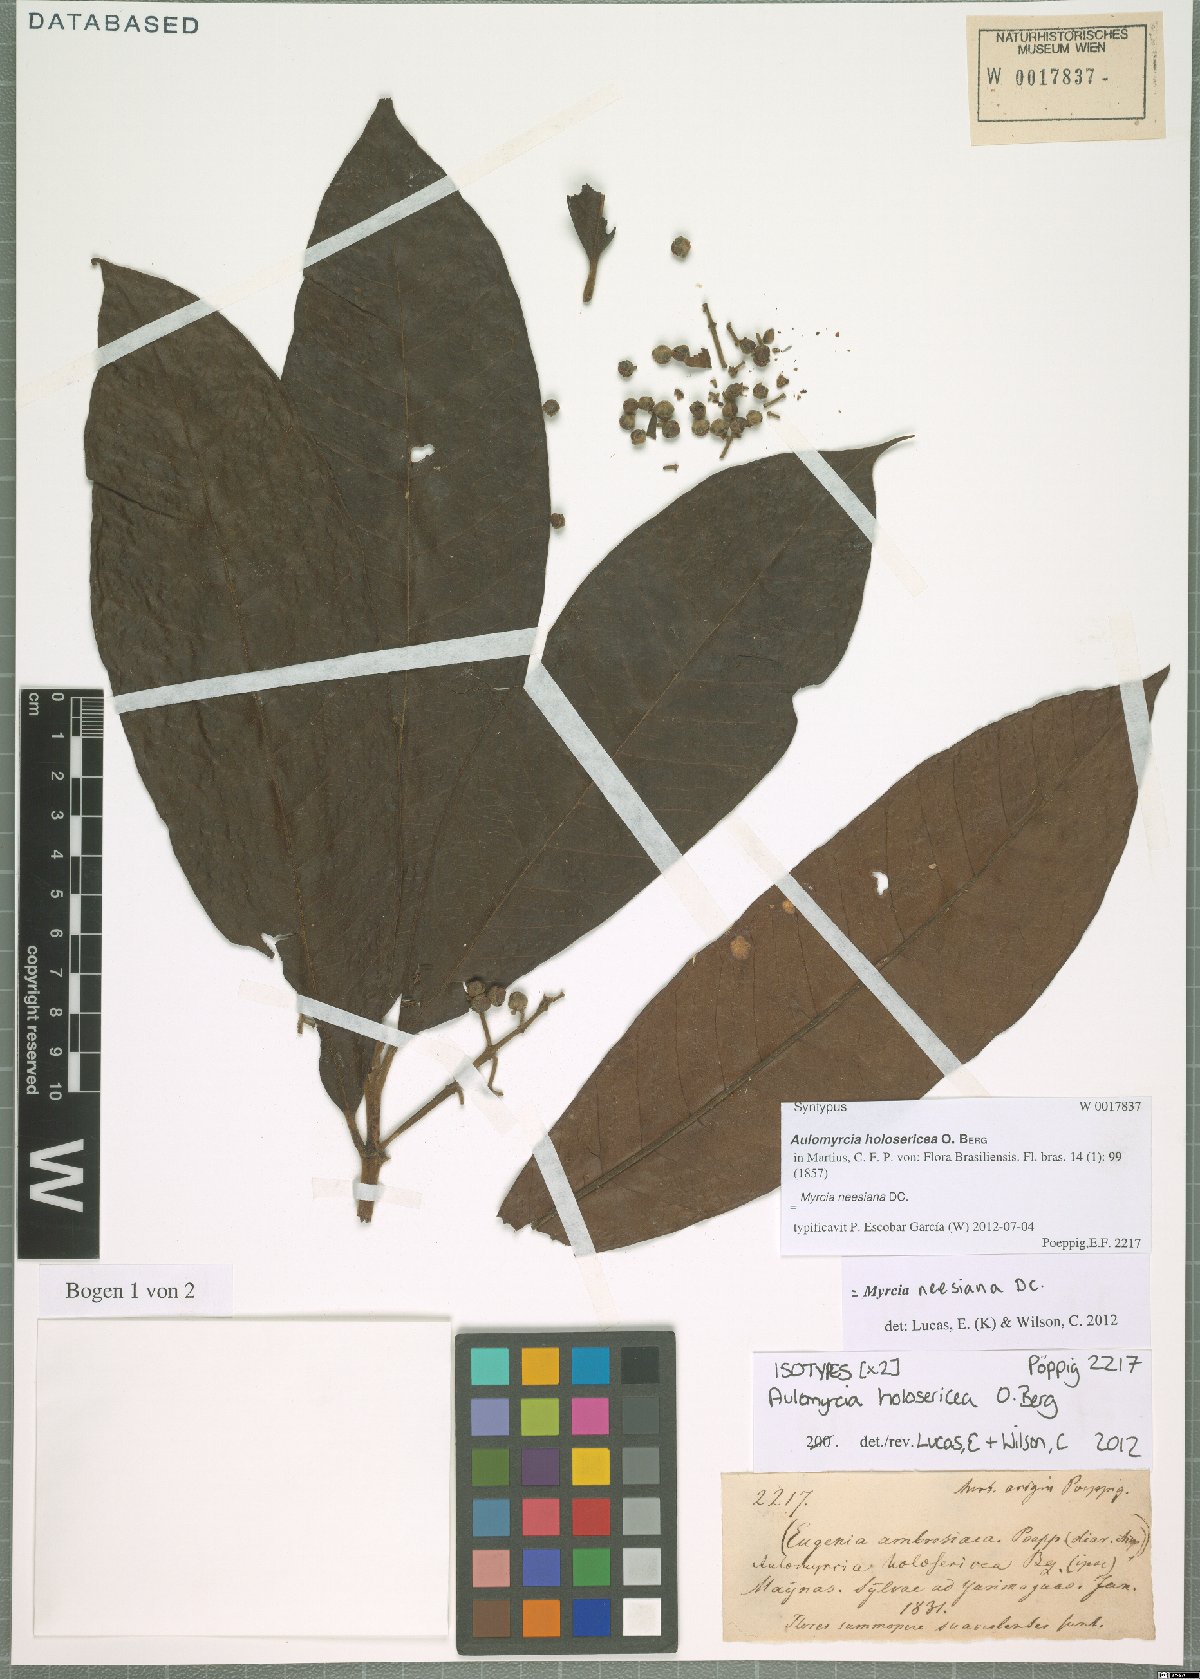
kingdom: Plantae
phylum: Tracheophyta
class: Magnoliopsida
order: Myrtales
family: Myrtaceae
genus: Myrcia
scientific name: Myrcia neesiana
